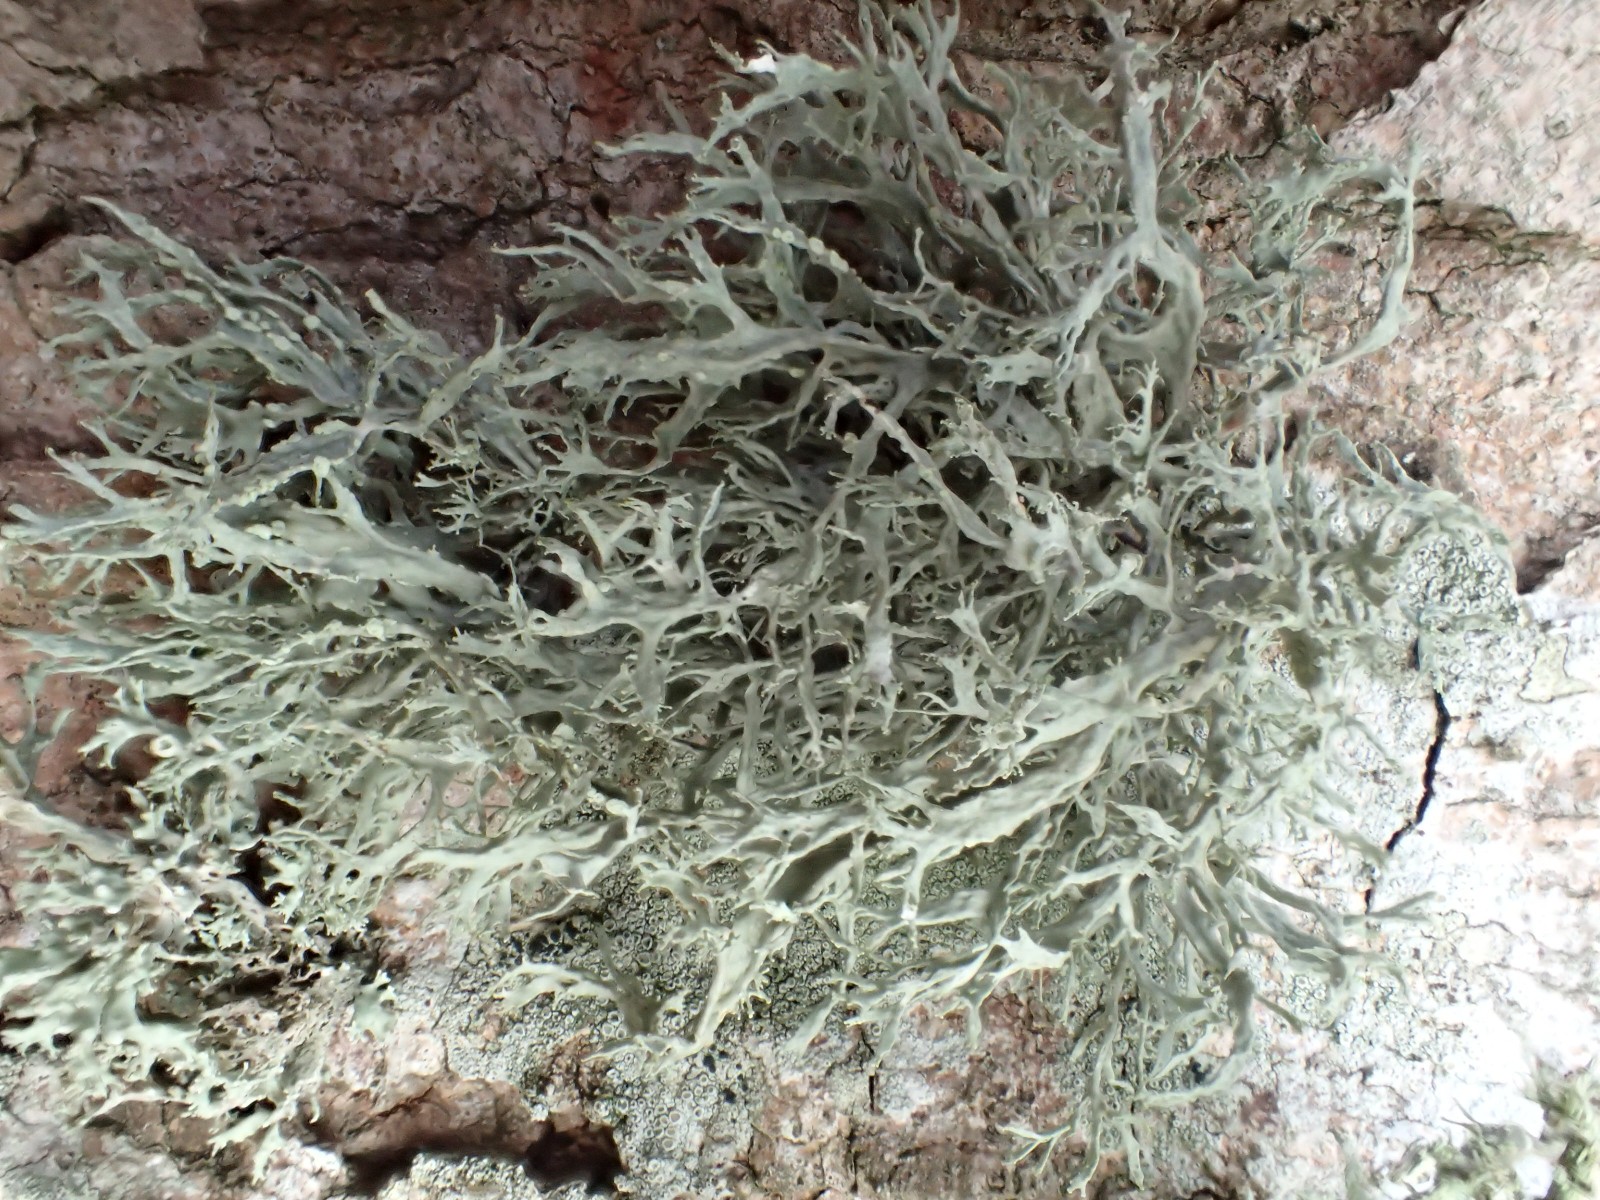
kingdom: Fungi
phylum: Ascomycota
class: Lecanoromycetes
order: Lecanorales
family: Ramalinaceae
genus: Ramalina
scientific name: Ramalina farinacea
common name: melet grenlav
